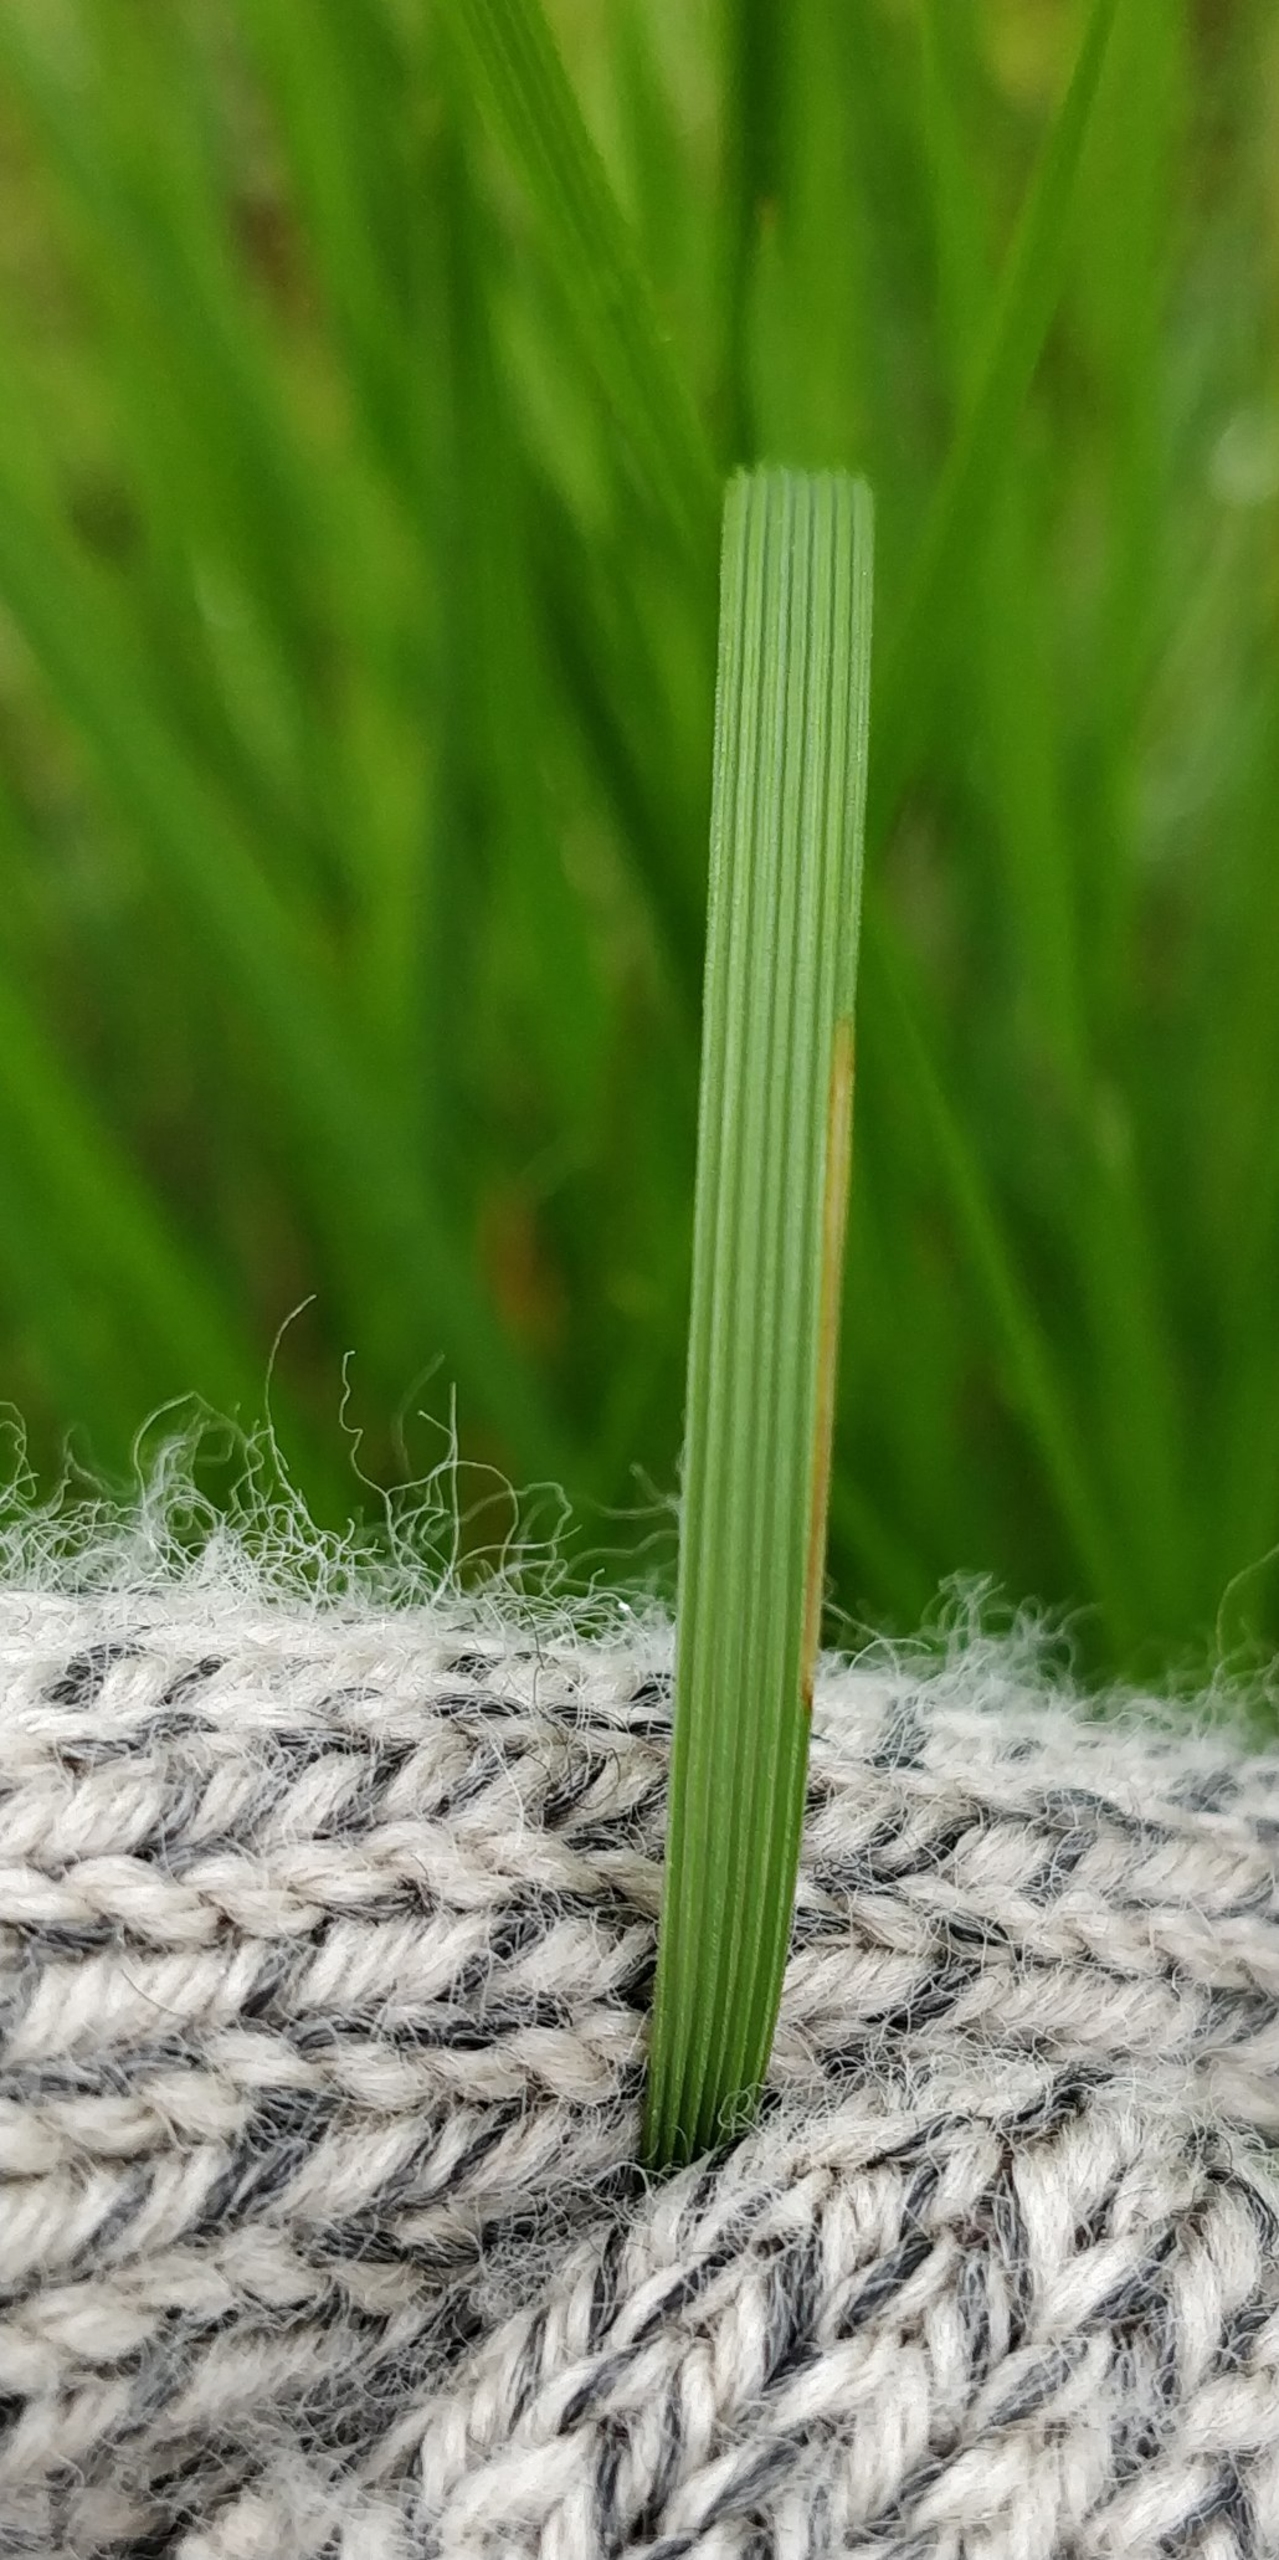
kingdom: Plantae
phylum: Tracheophyta
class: Liliopsida
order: Poales
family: Poaceae
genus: Deschampsia
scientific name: Deschampsia cespitosa
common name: Mose-bunke
